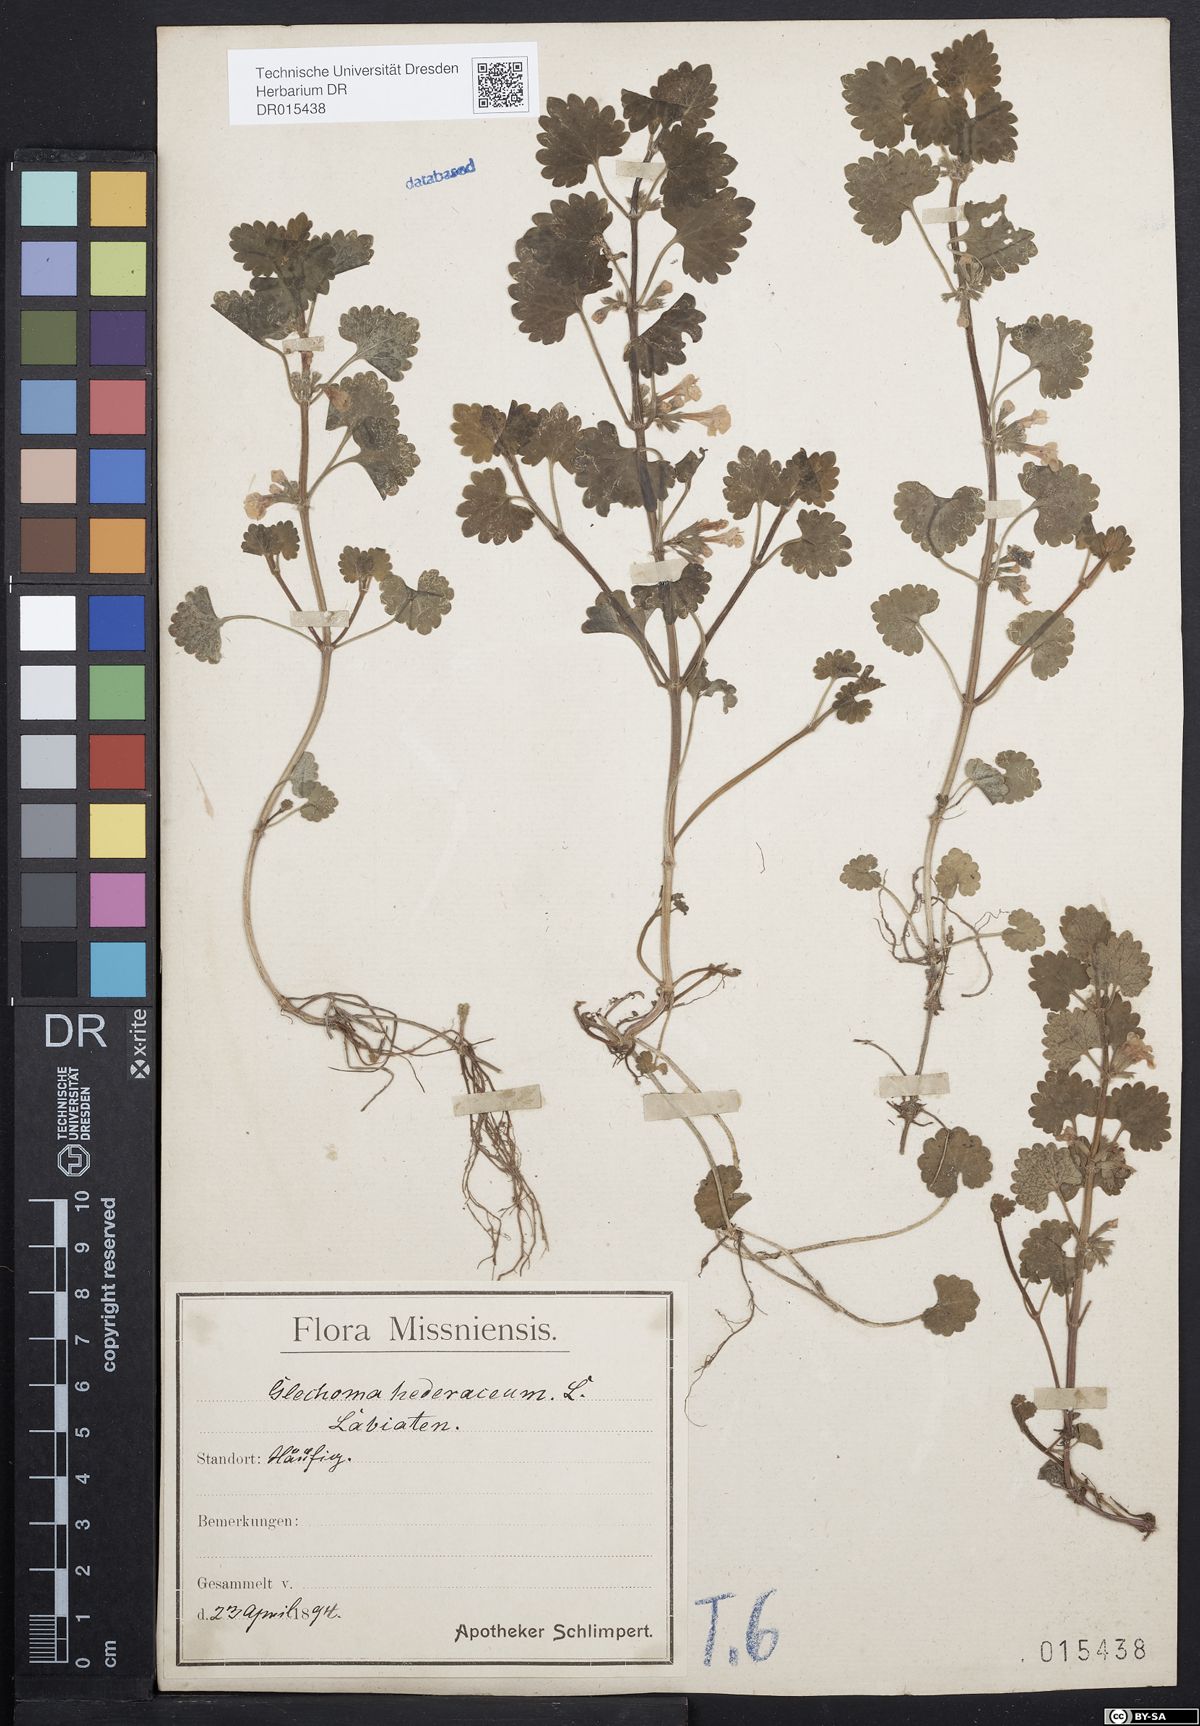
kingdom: Plantae
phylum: Tracheophyta
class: Magnoliopsida
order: Lamiales
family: Lamiaceae
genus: Glechoma
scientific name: Glechoma hederacea
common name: Ground ivy
